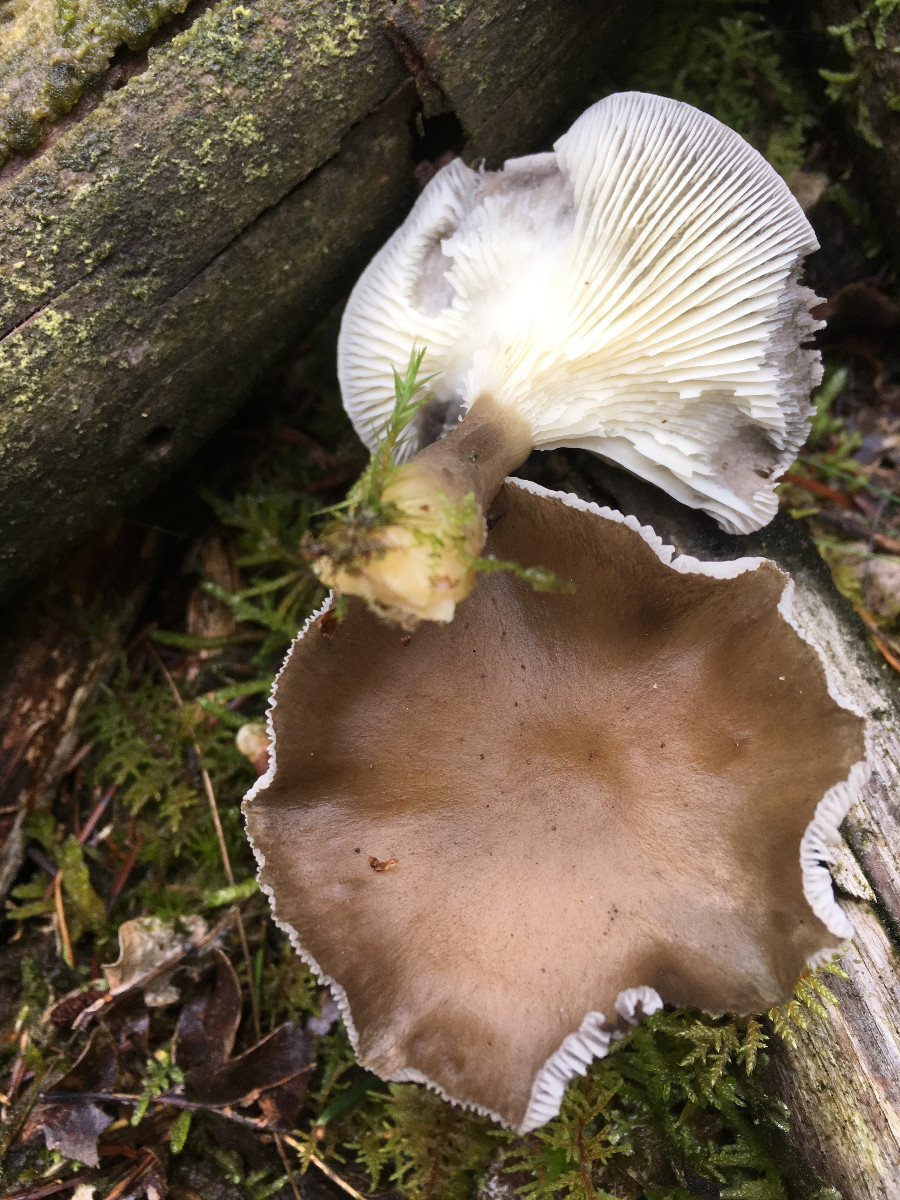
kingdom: Fungi
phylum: Basidiomycota
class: Agaricomycetes
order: Agaricales
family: Hygrophoraceae
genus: Ampulloclitocybe
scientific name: Ampulloclitocybe clavipes
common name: køllefod
